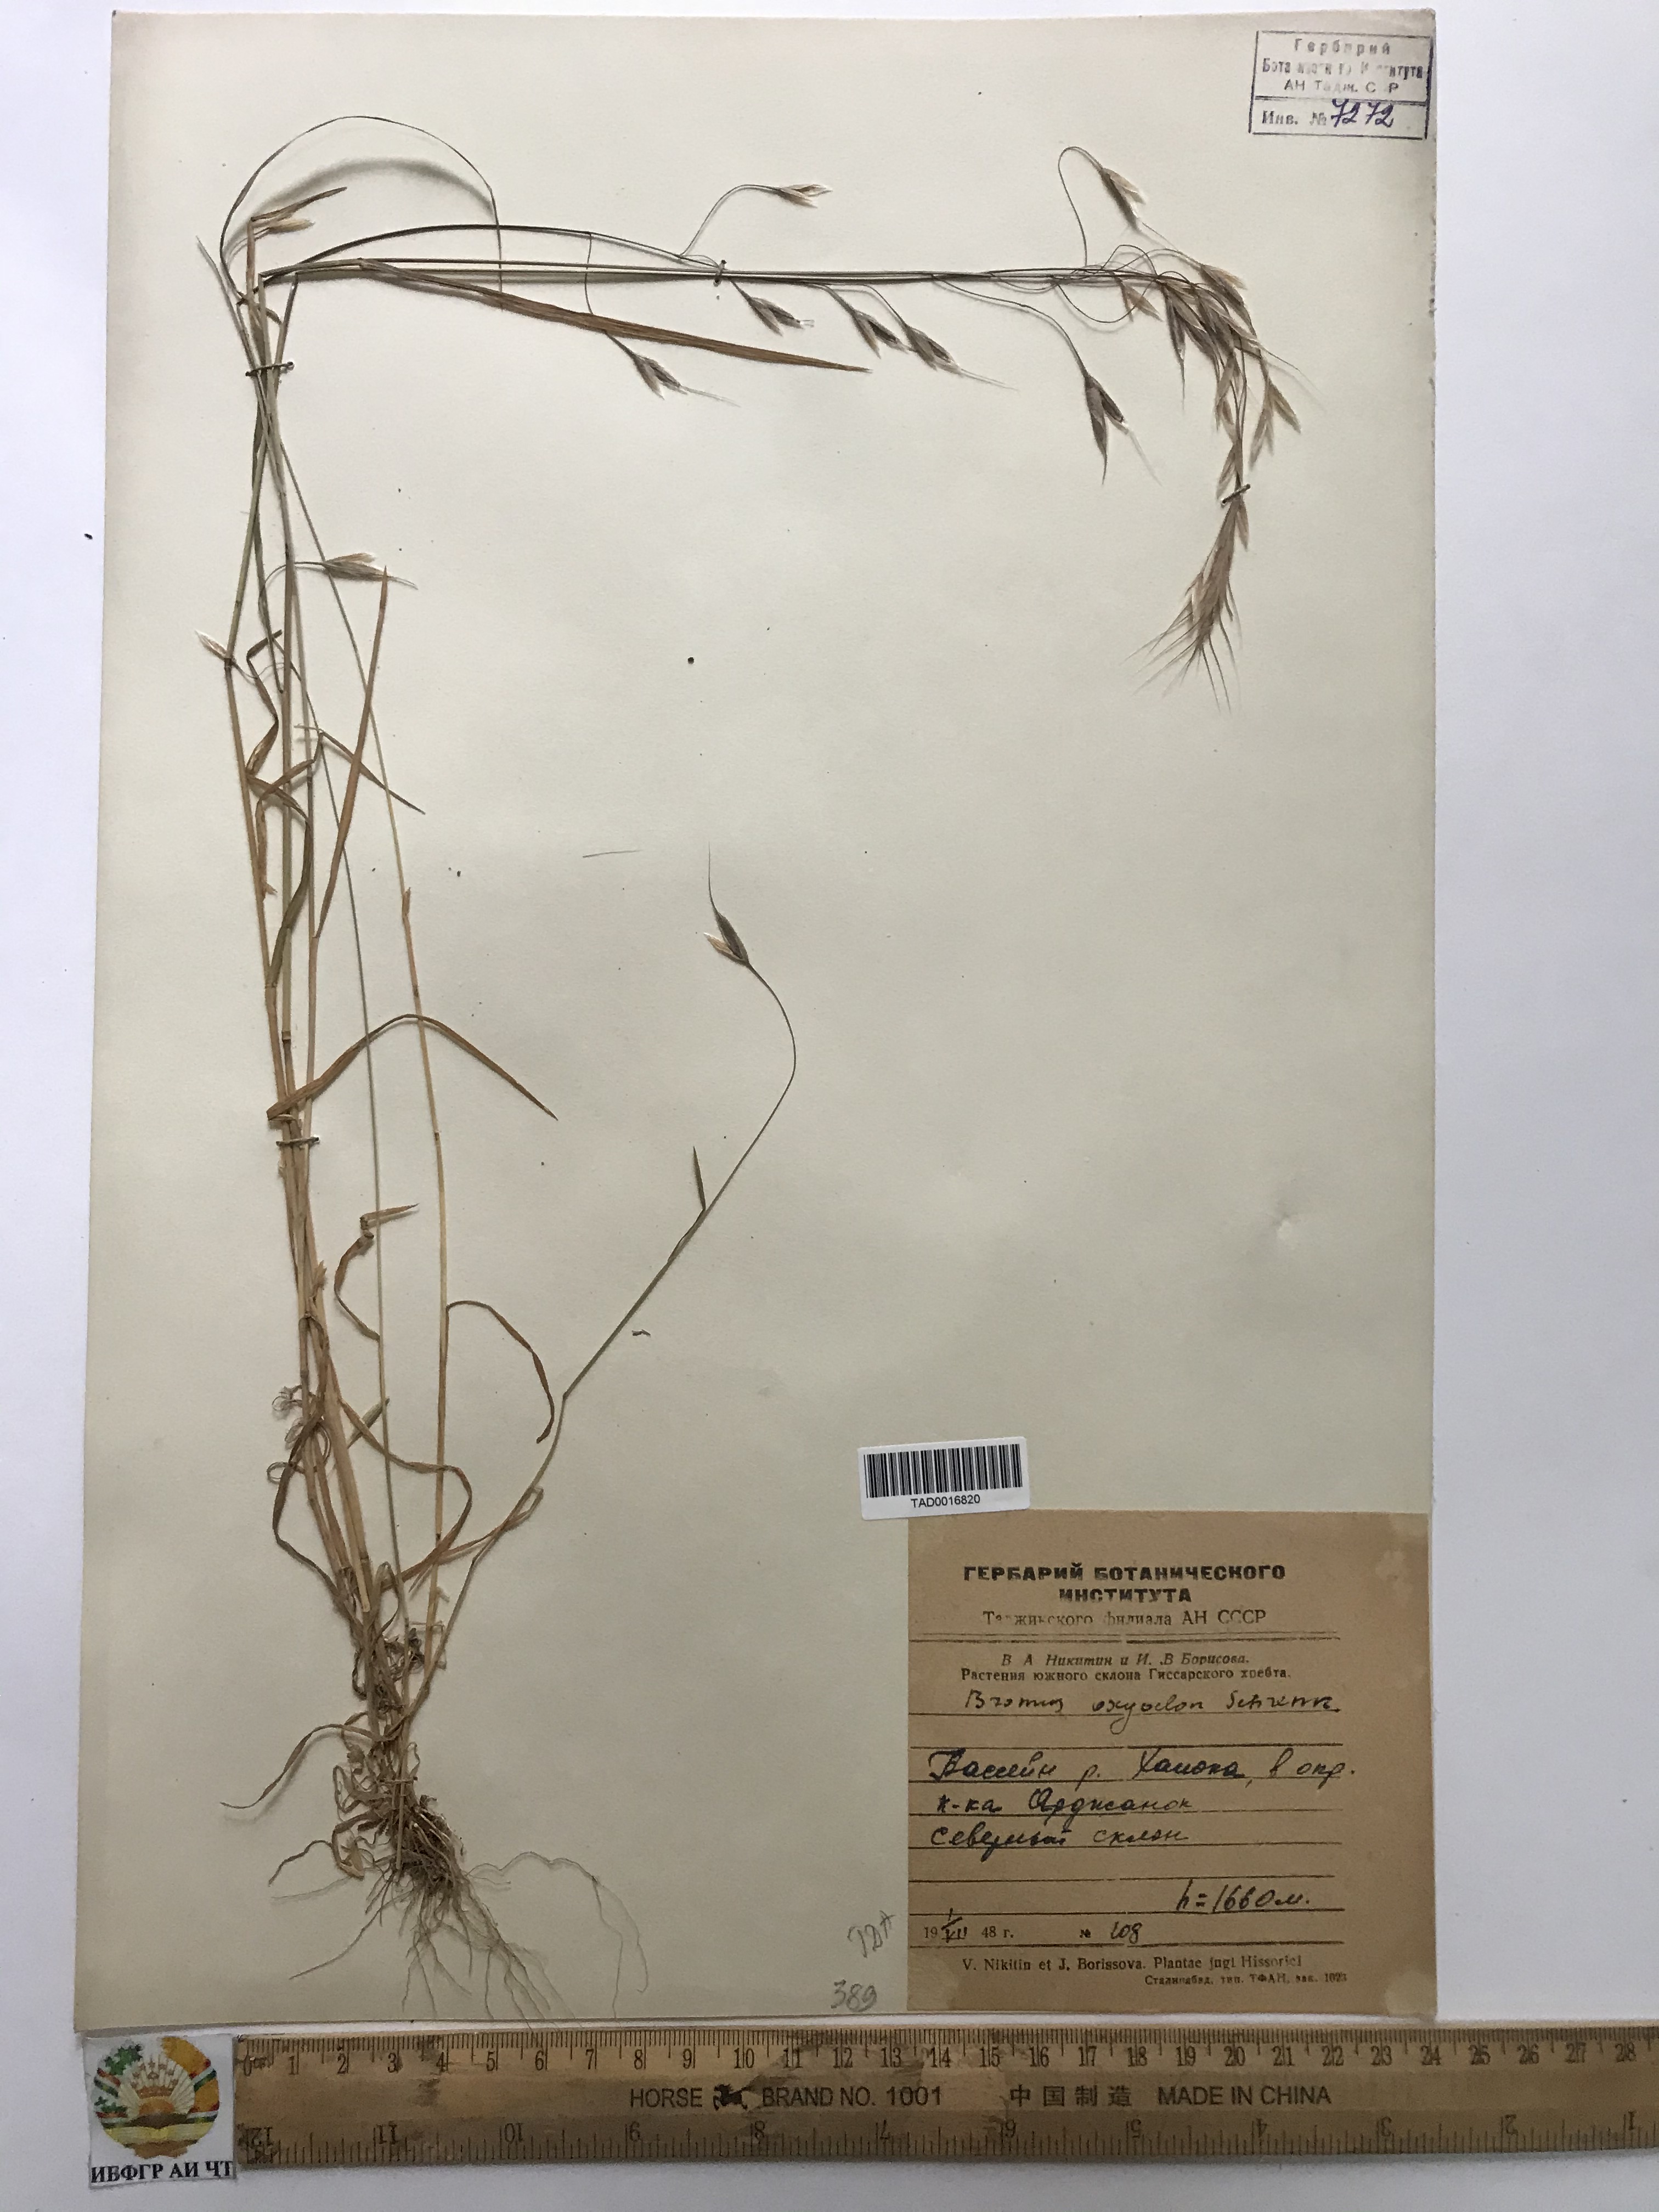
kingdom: Plantae
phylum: Tracheophyta
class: Liliopsida
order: Poales
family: Poaceae
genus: Bromus
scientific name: Bromus oxyodon
